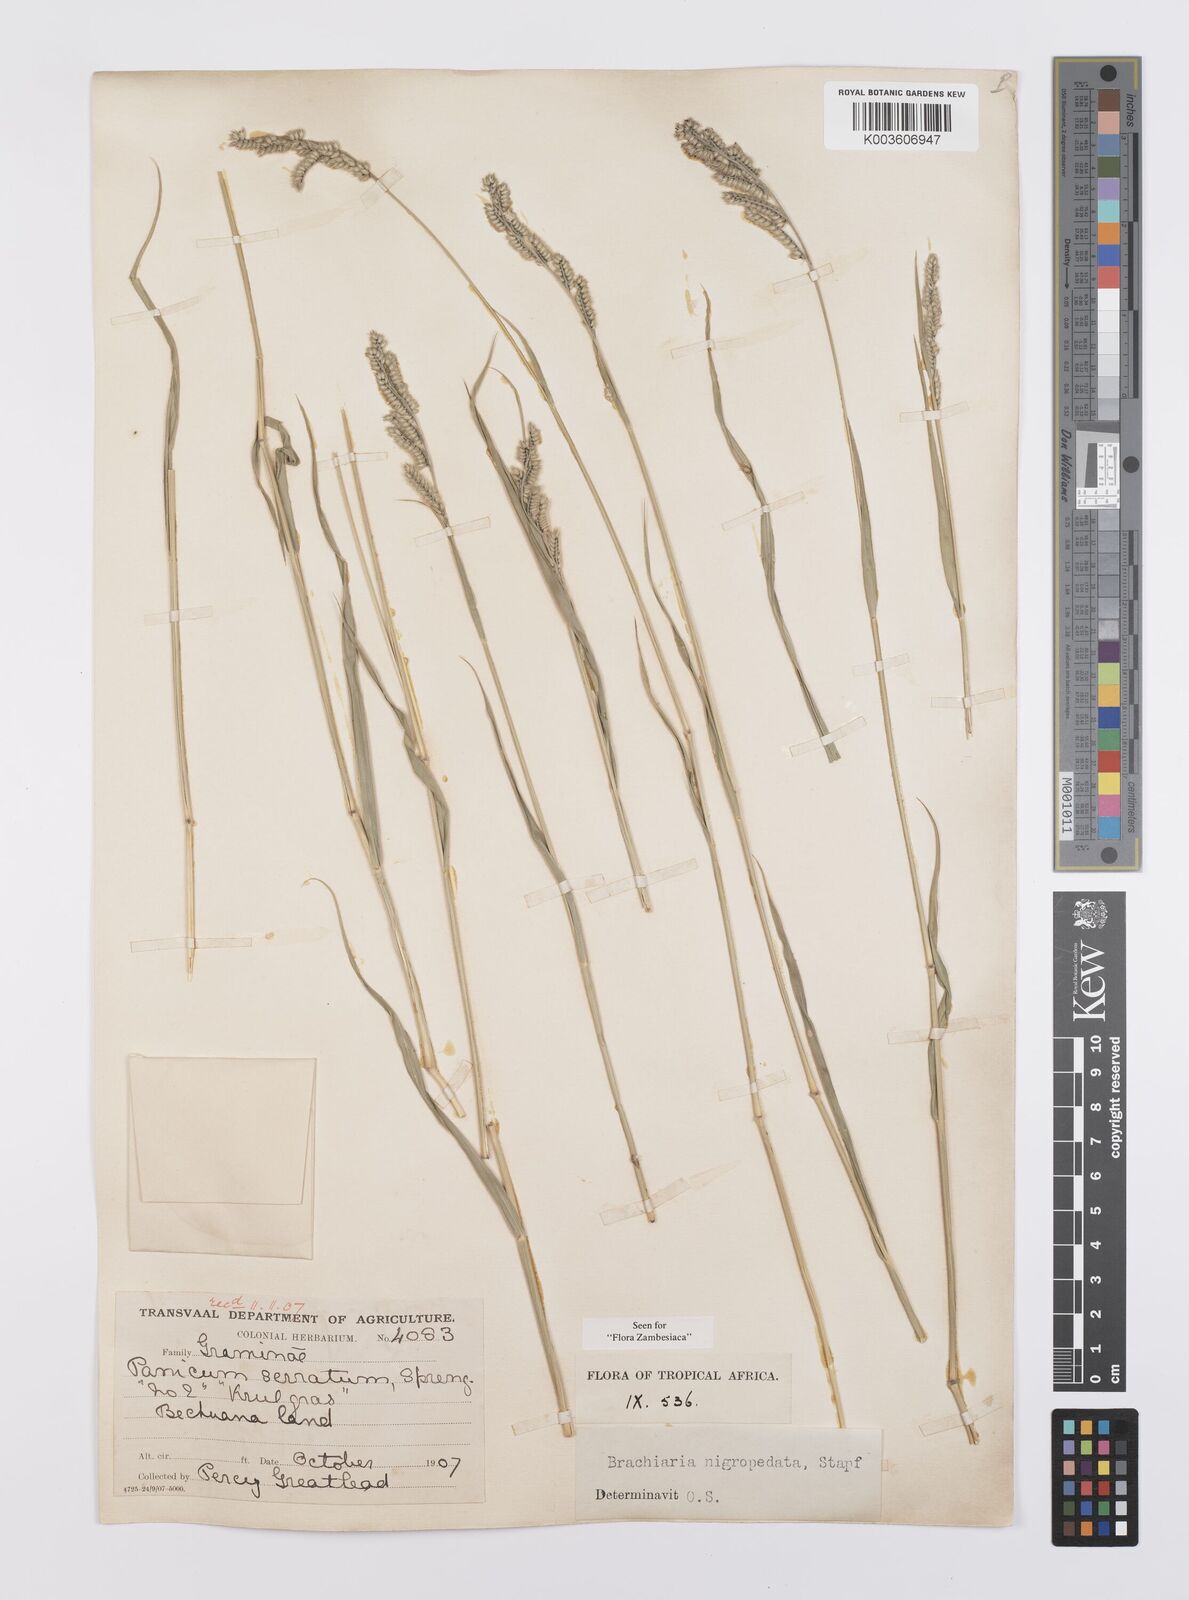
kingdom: Plantae
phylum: Tracheophyta
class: Liliopsida
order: Poales
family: Poaceae
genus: Urochloa
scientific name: Urochloa nigropedata
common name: Spotted signal grass
